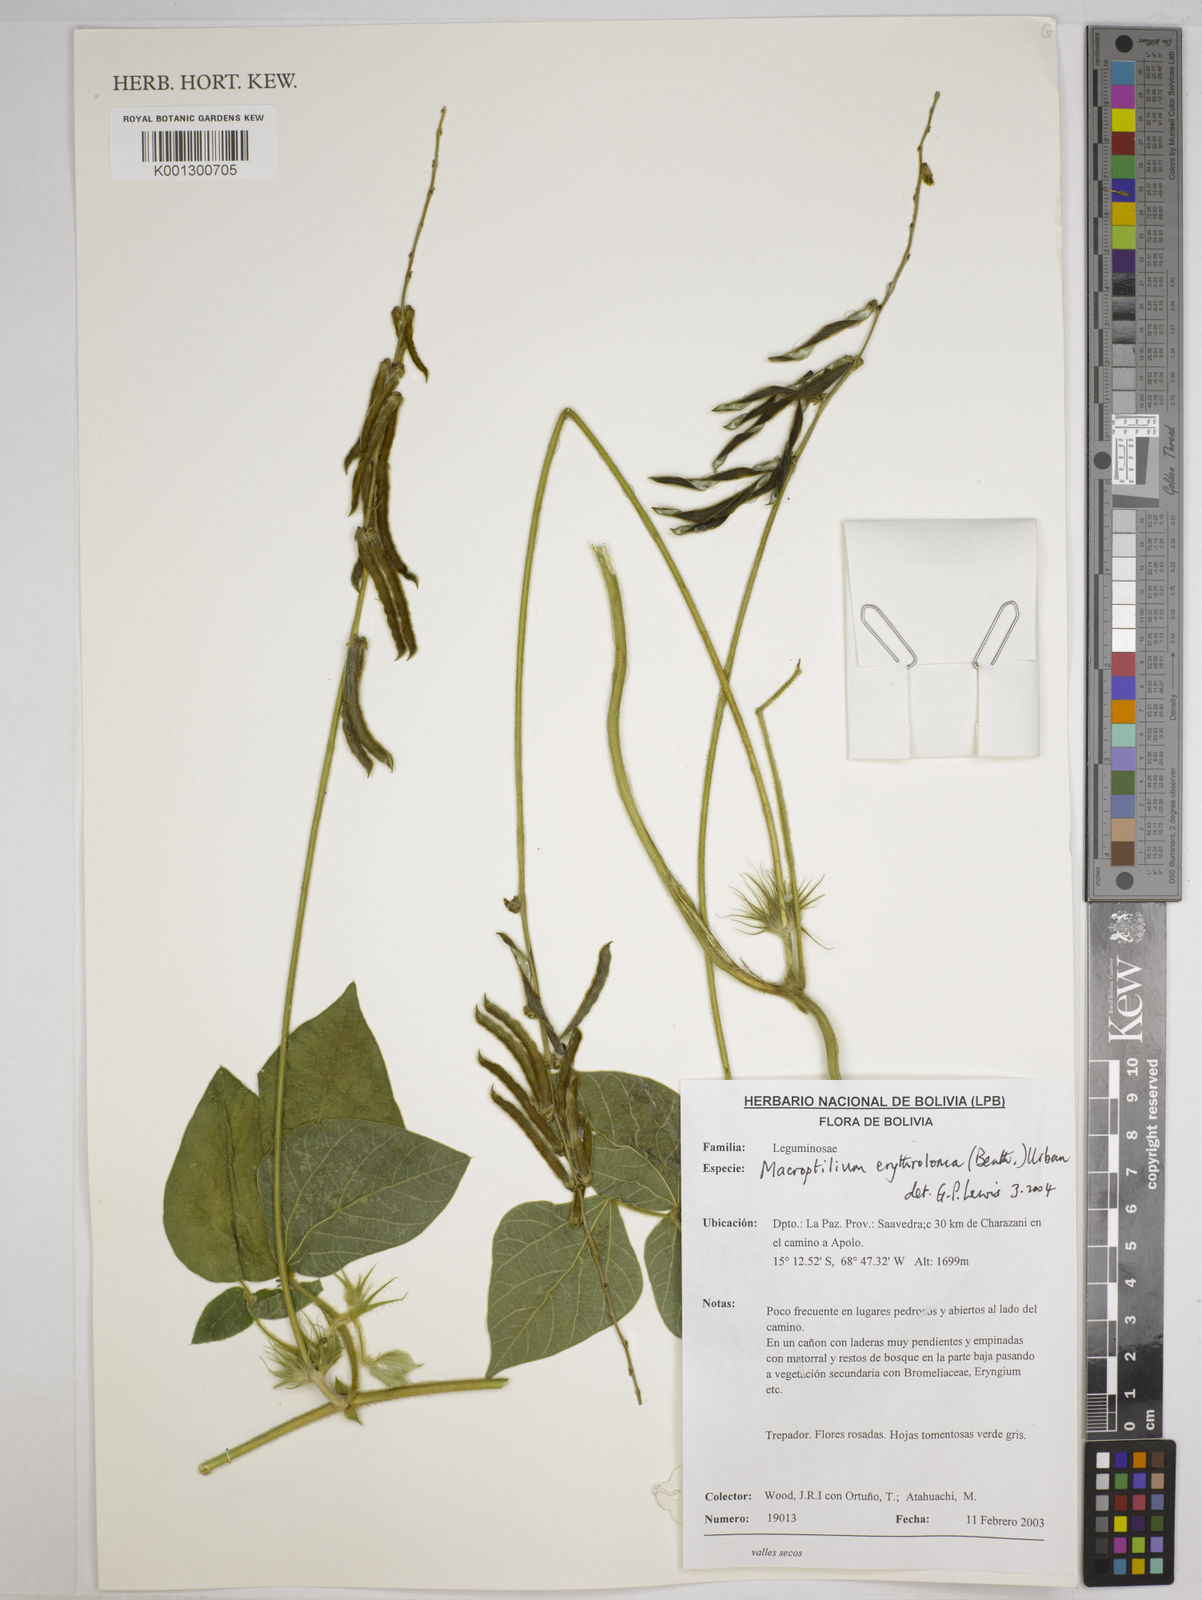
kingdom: Plantae
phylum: Tracheophyta
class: Magnoliopsida
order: Fabales
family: Fabaceae
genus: Macroptilium
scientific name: Macroptilium erythroloma
